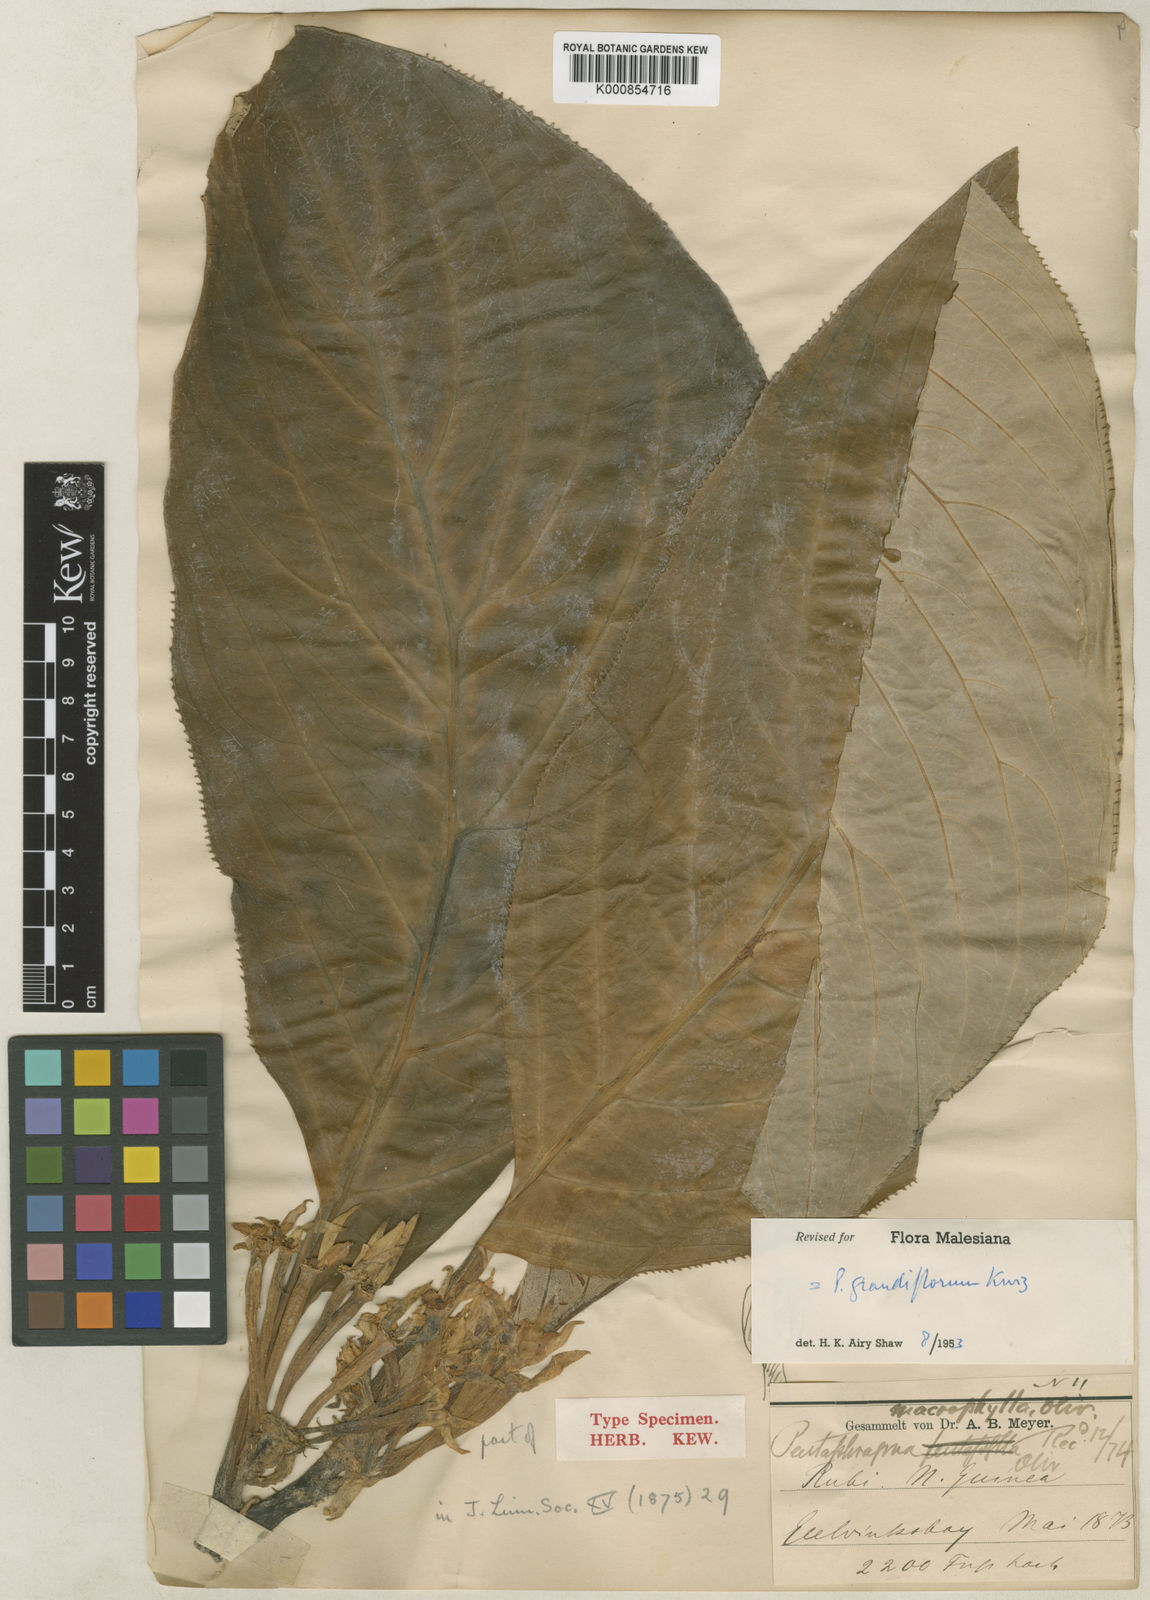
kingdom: Plantae
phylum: Tracheophyta
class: Magnoliopsida
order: Asterales
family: Pentaphragmataceae
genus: Pentaphragma
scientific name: Pentaphragma grandiflorum
